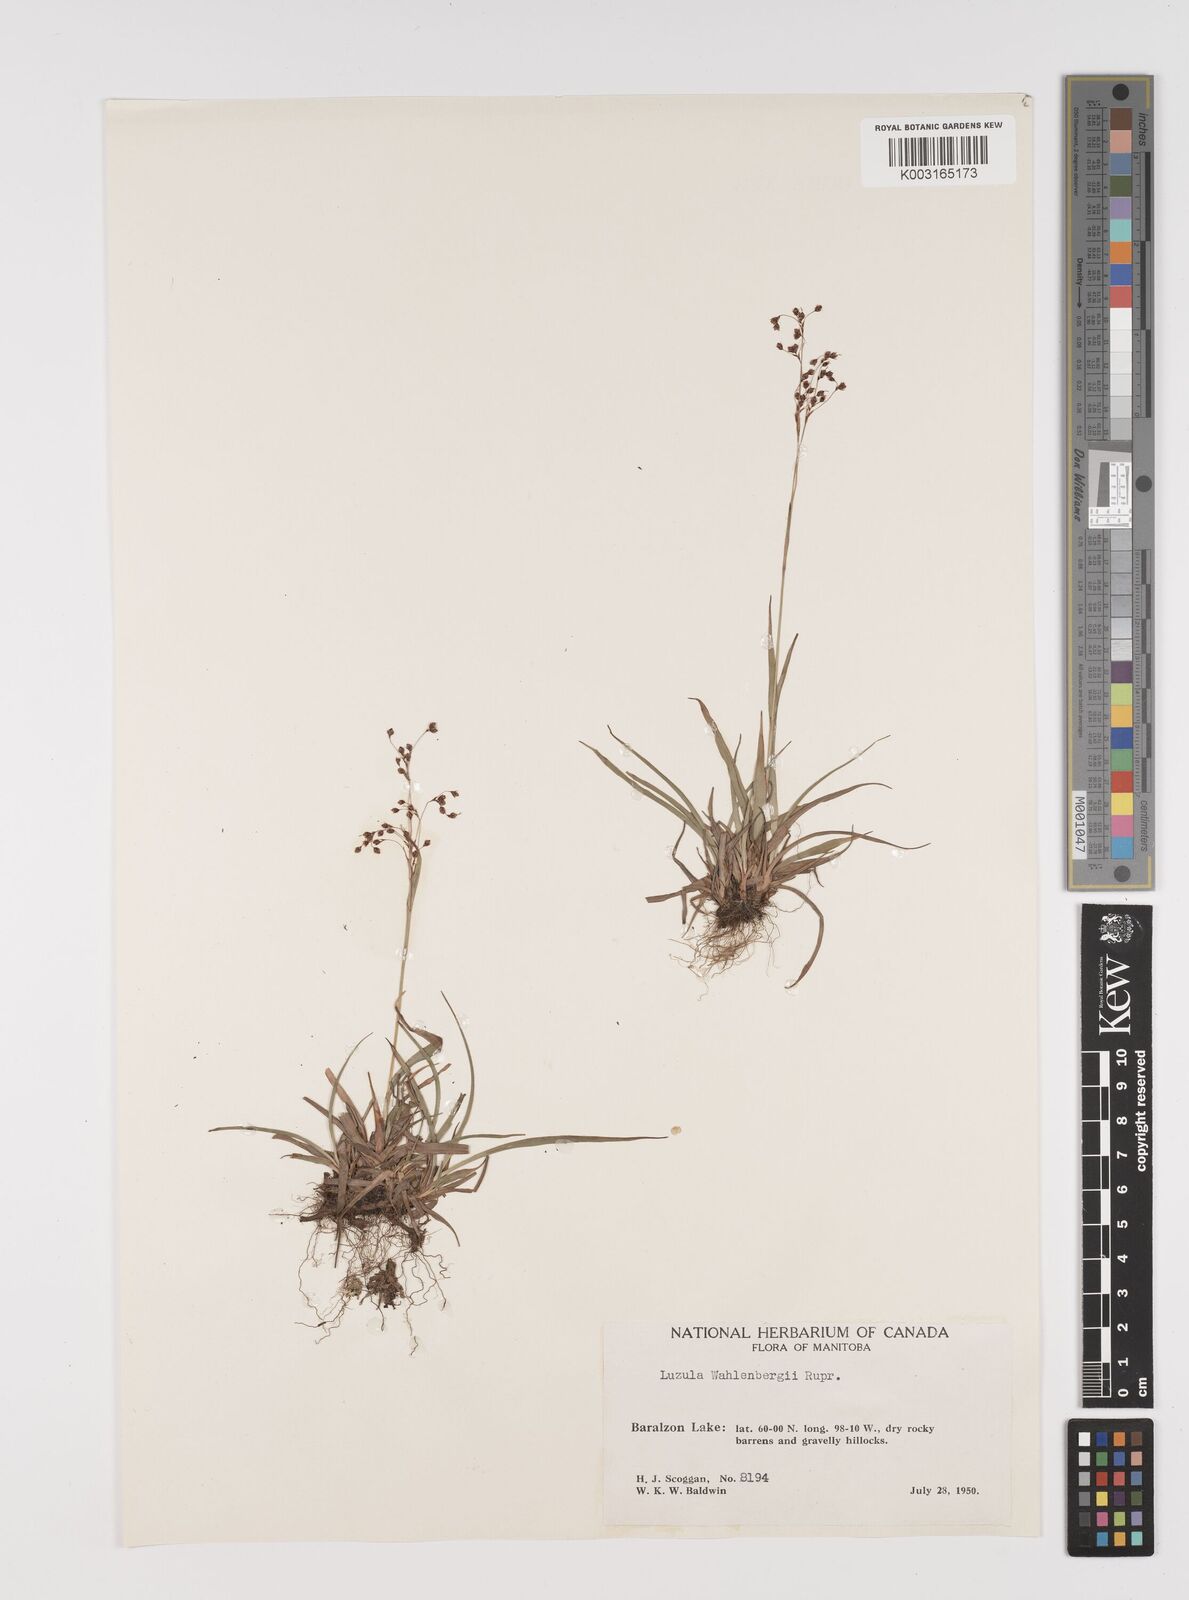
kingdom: Plantae
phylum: Tracheophyta
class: Liliopsida
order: Poales
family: Juncaceae
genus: Luzula
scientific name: Luzula wahlenbergii
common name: Wahlenberg's wood-rush
